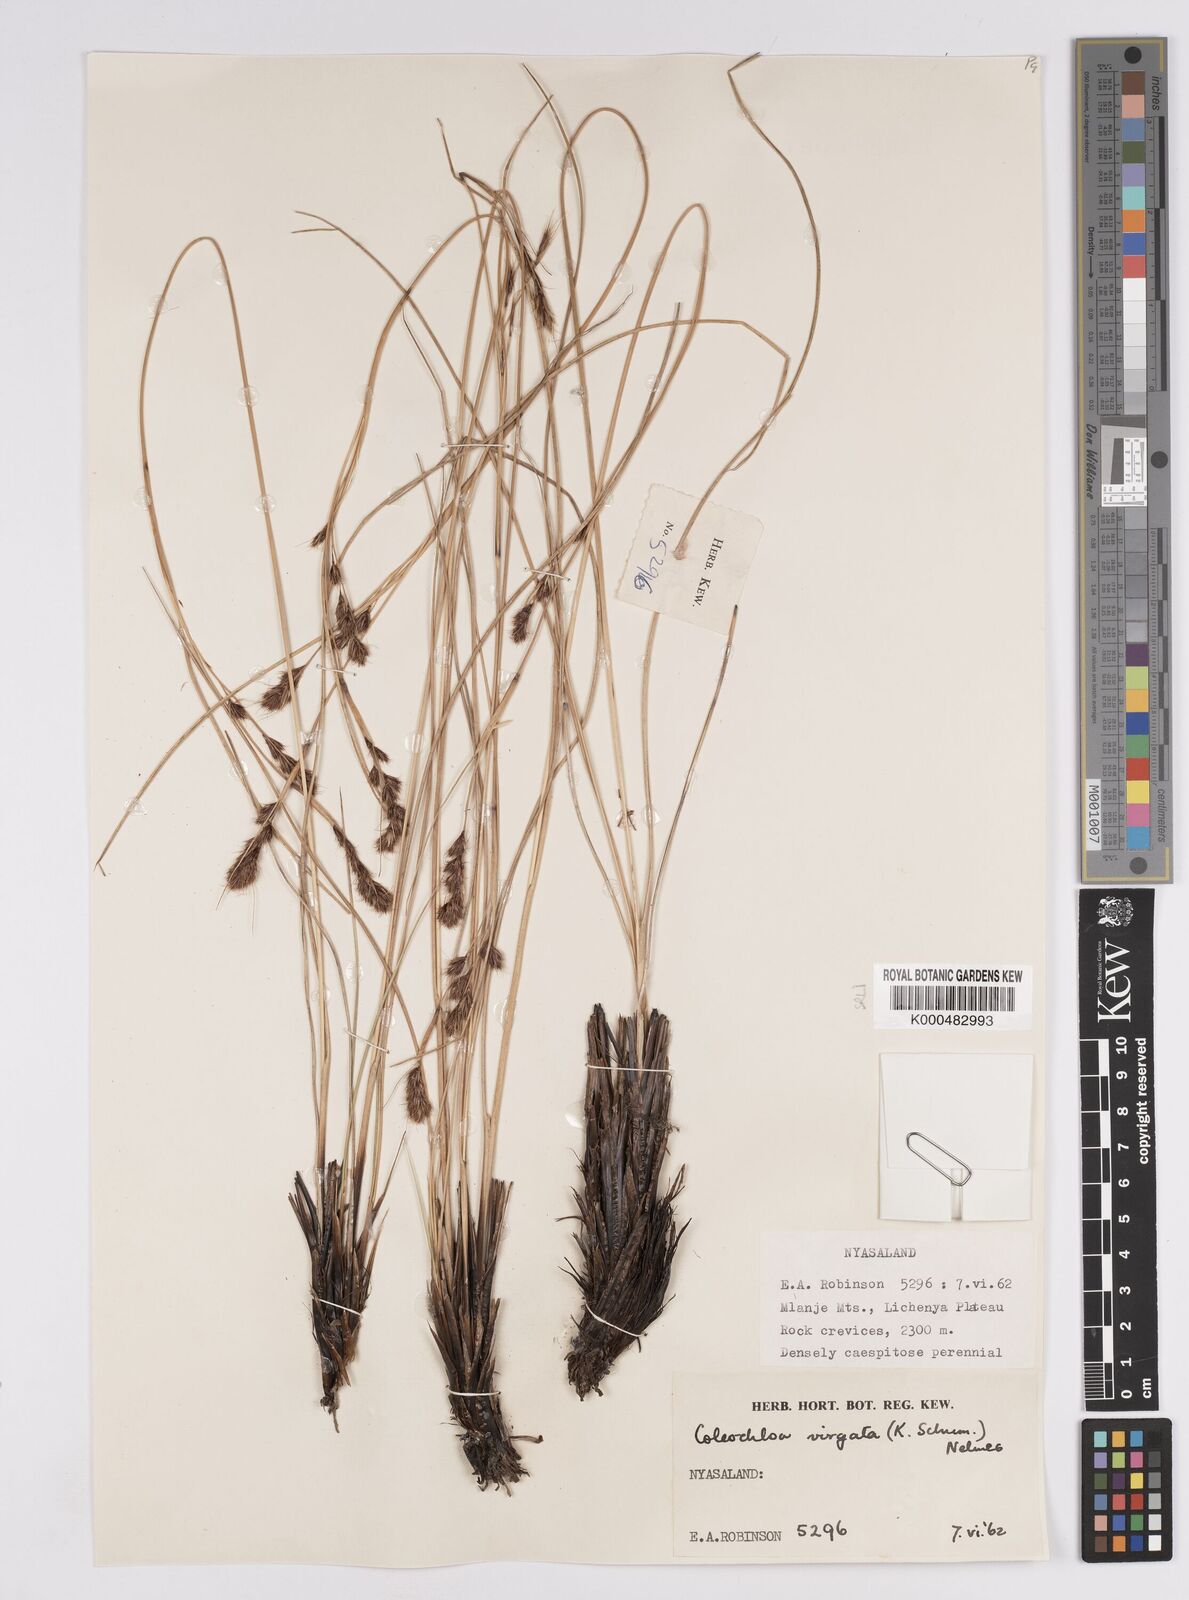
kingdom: Plantae
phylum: Tracheophyta
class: Liliopsida
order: Poales
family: Cyperaceae
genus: Coleochloa
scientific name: Coleochloa virgata
